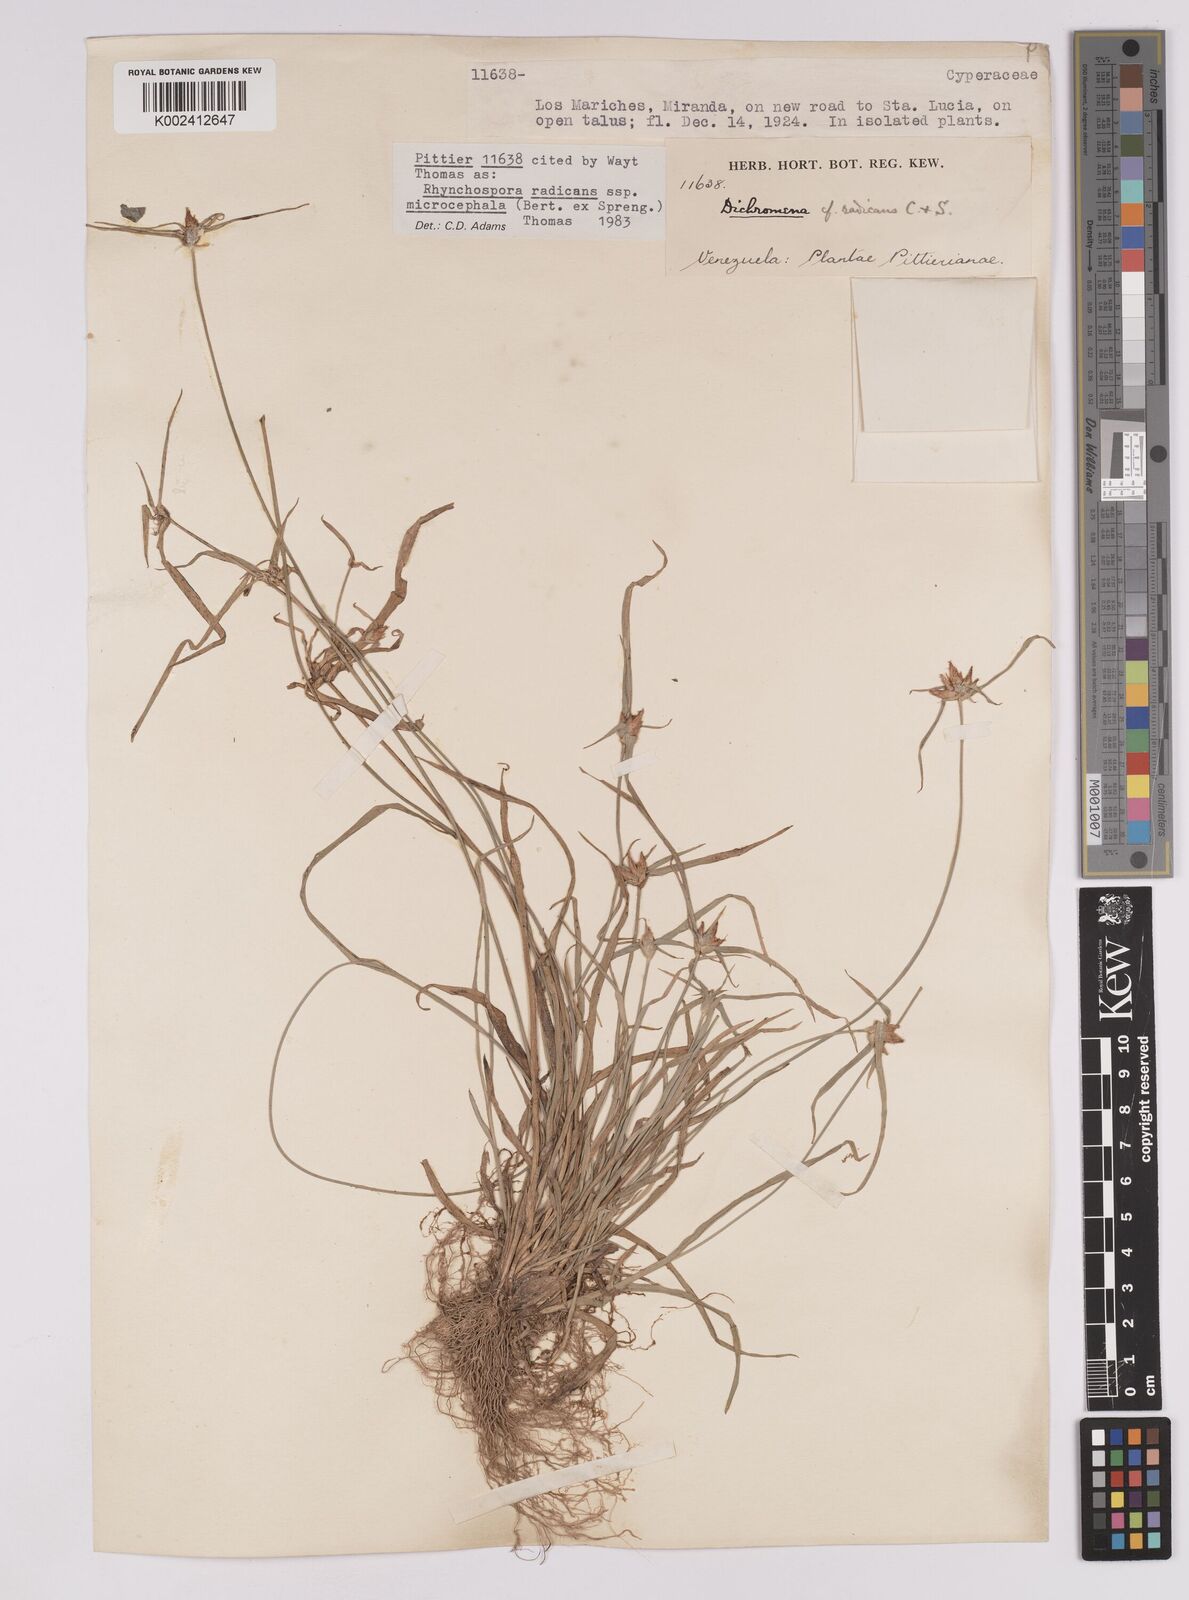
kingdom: Plantae
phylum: Tracheophyta
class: Liliopsida
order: Poales
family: Cyperaceae
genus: Rhynchospora
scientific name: Rhynchospora radicans
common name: Tropical whitetop
